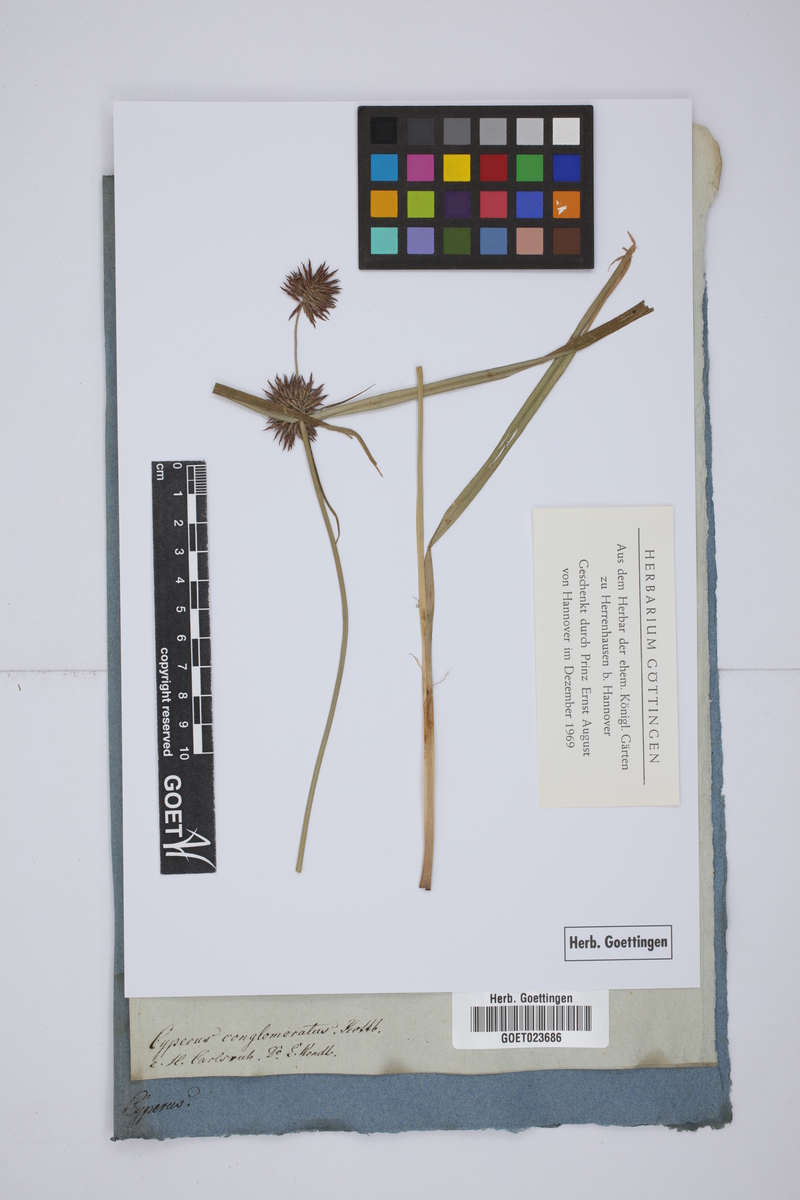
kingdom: Plantae
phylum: Tracheophyta
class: Liliopsida
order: Poales
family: Cyperaceae
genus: Cyperus
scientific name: Cyperus conglomeratus
